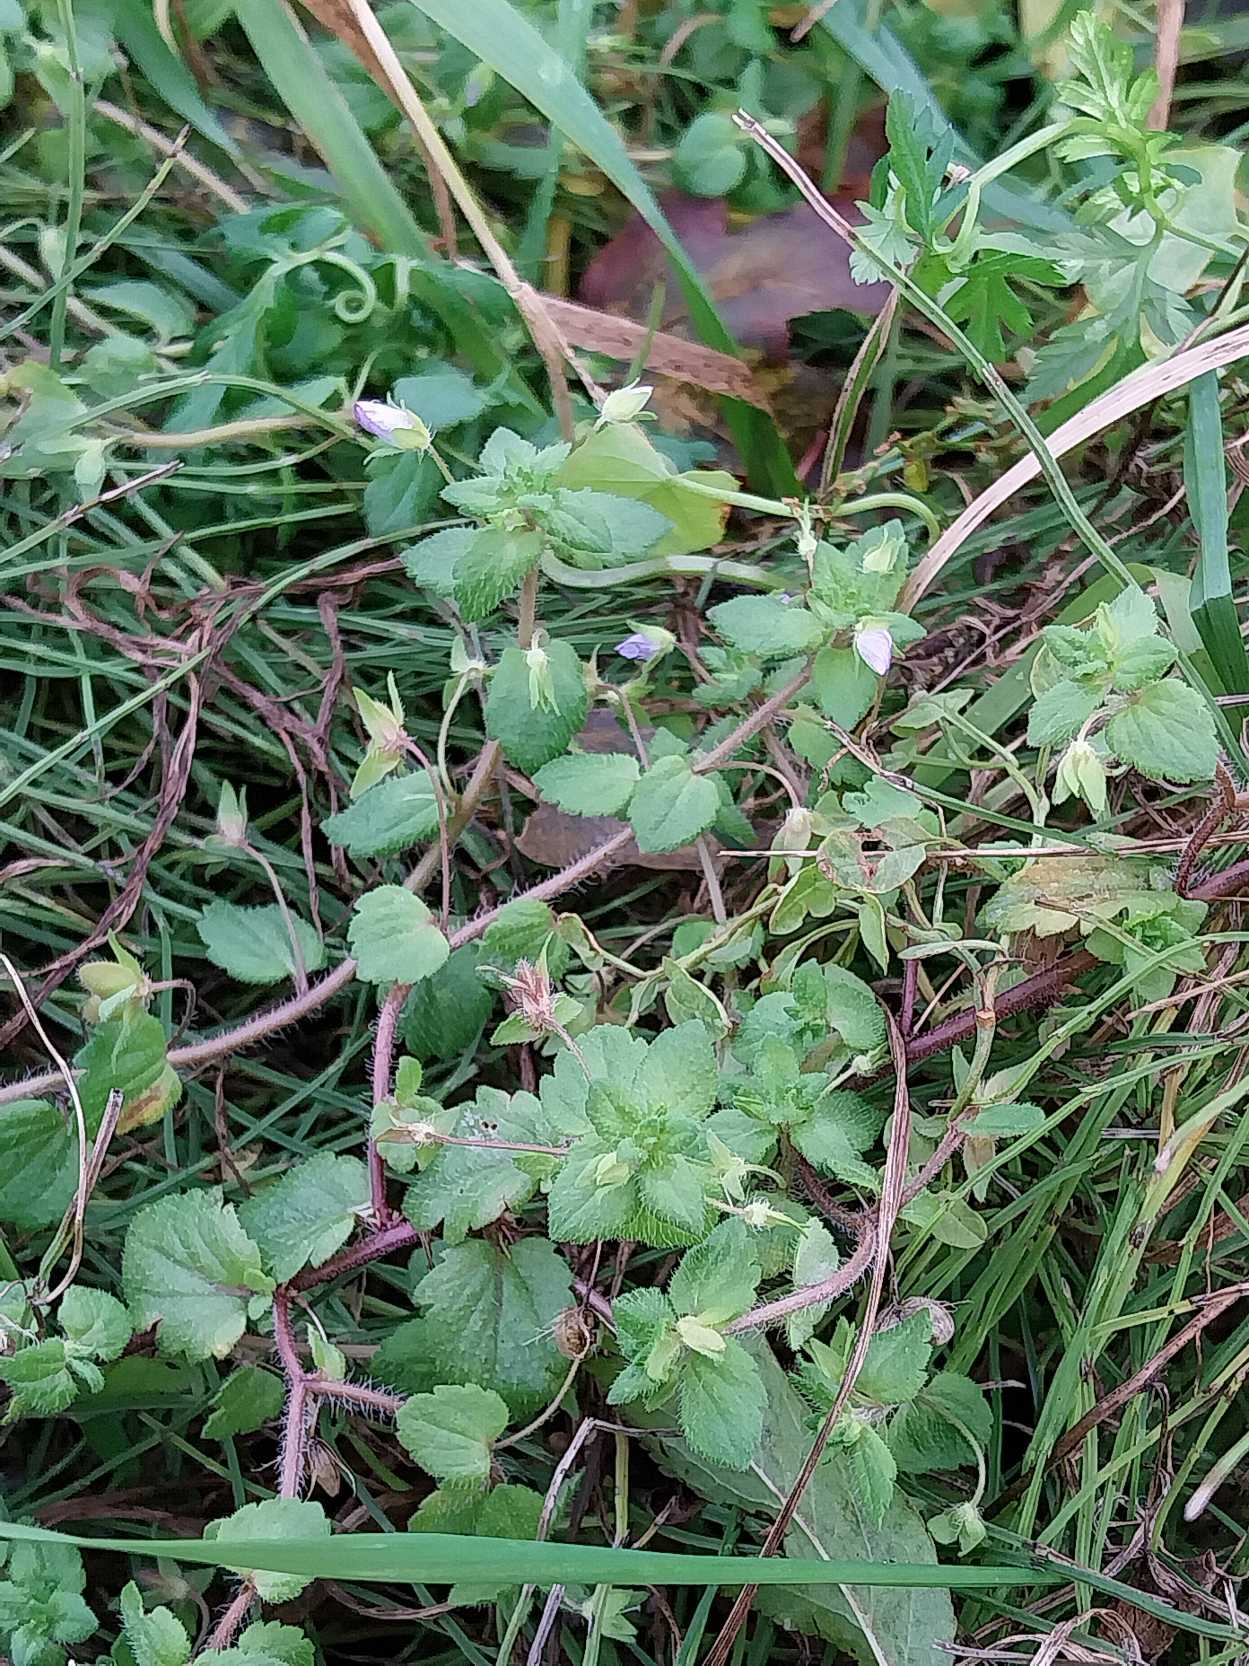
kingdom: Plantae
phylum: Tracheophyta
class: Magnoliopsida
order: Lamiales
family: Plantaginaceae
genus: Veronica
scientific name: Veronica persica
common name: Storkronet ærenpris
